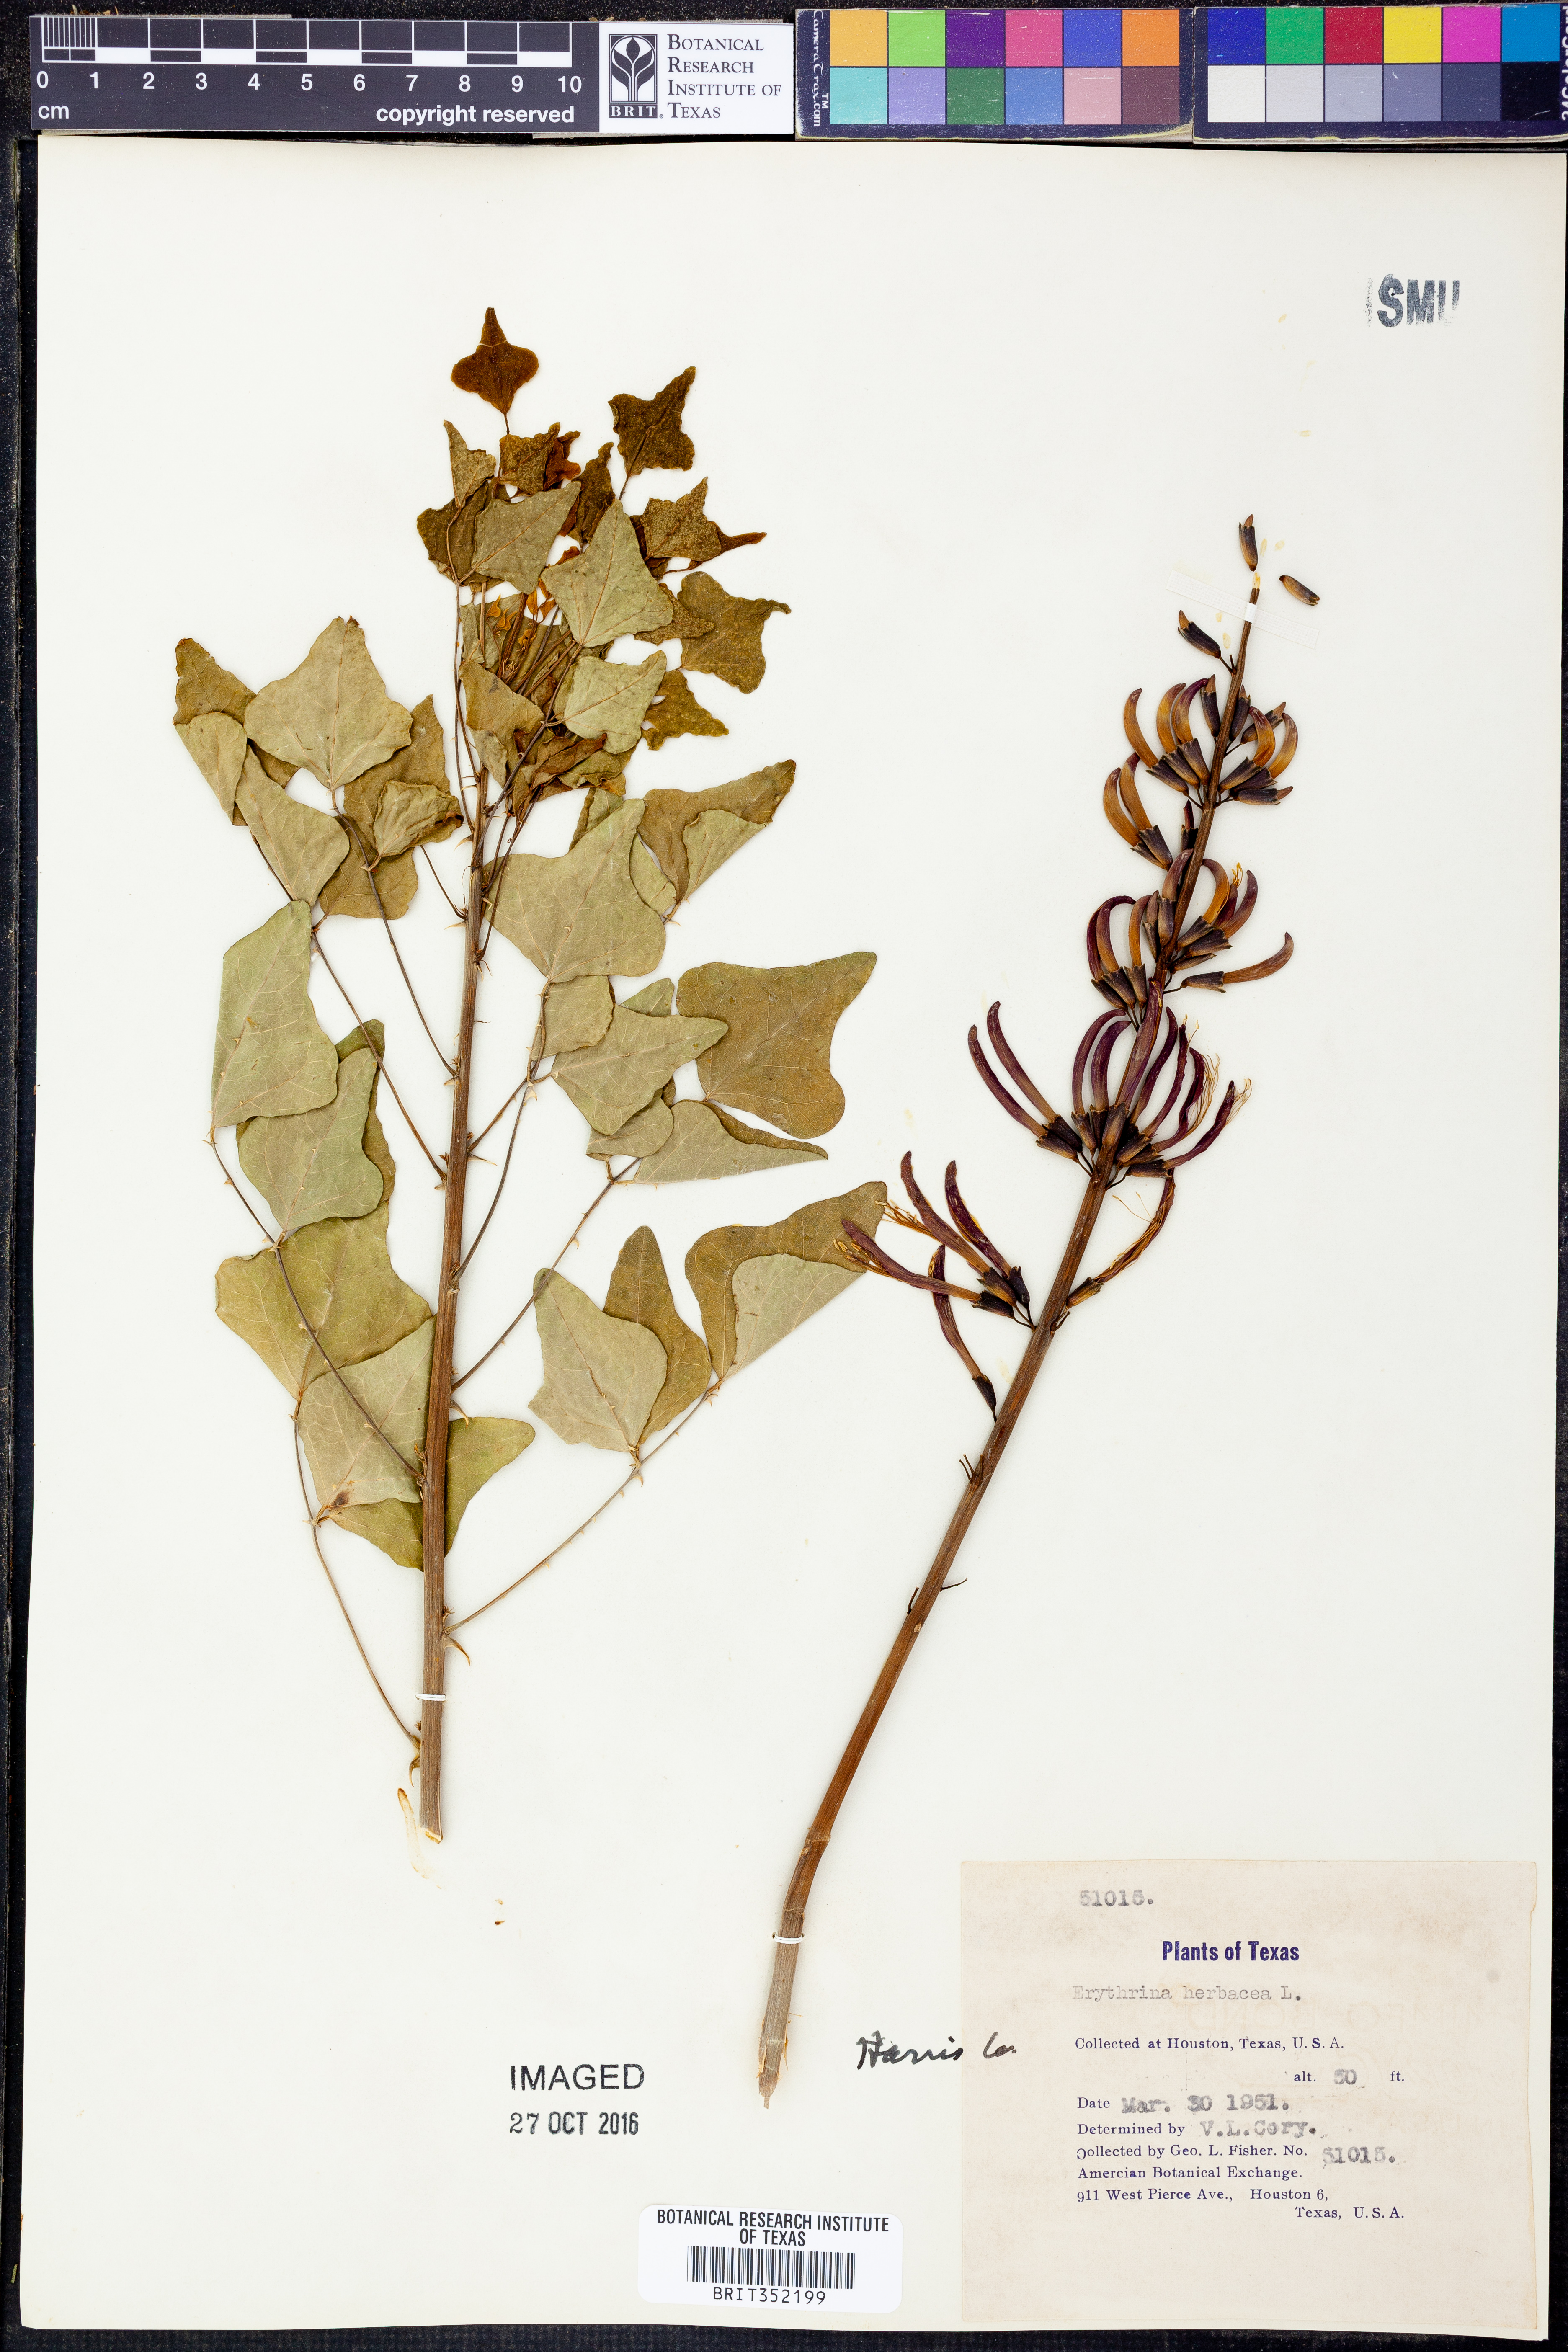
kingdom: Plantae
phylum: Tracheophyta
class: Magnoliopsida
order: Fabales
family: Fabaceae
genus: Erythrina
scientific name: Erythrina herbacea
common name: Coral-bean
